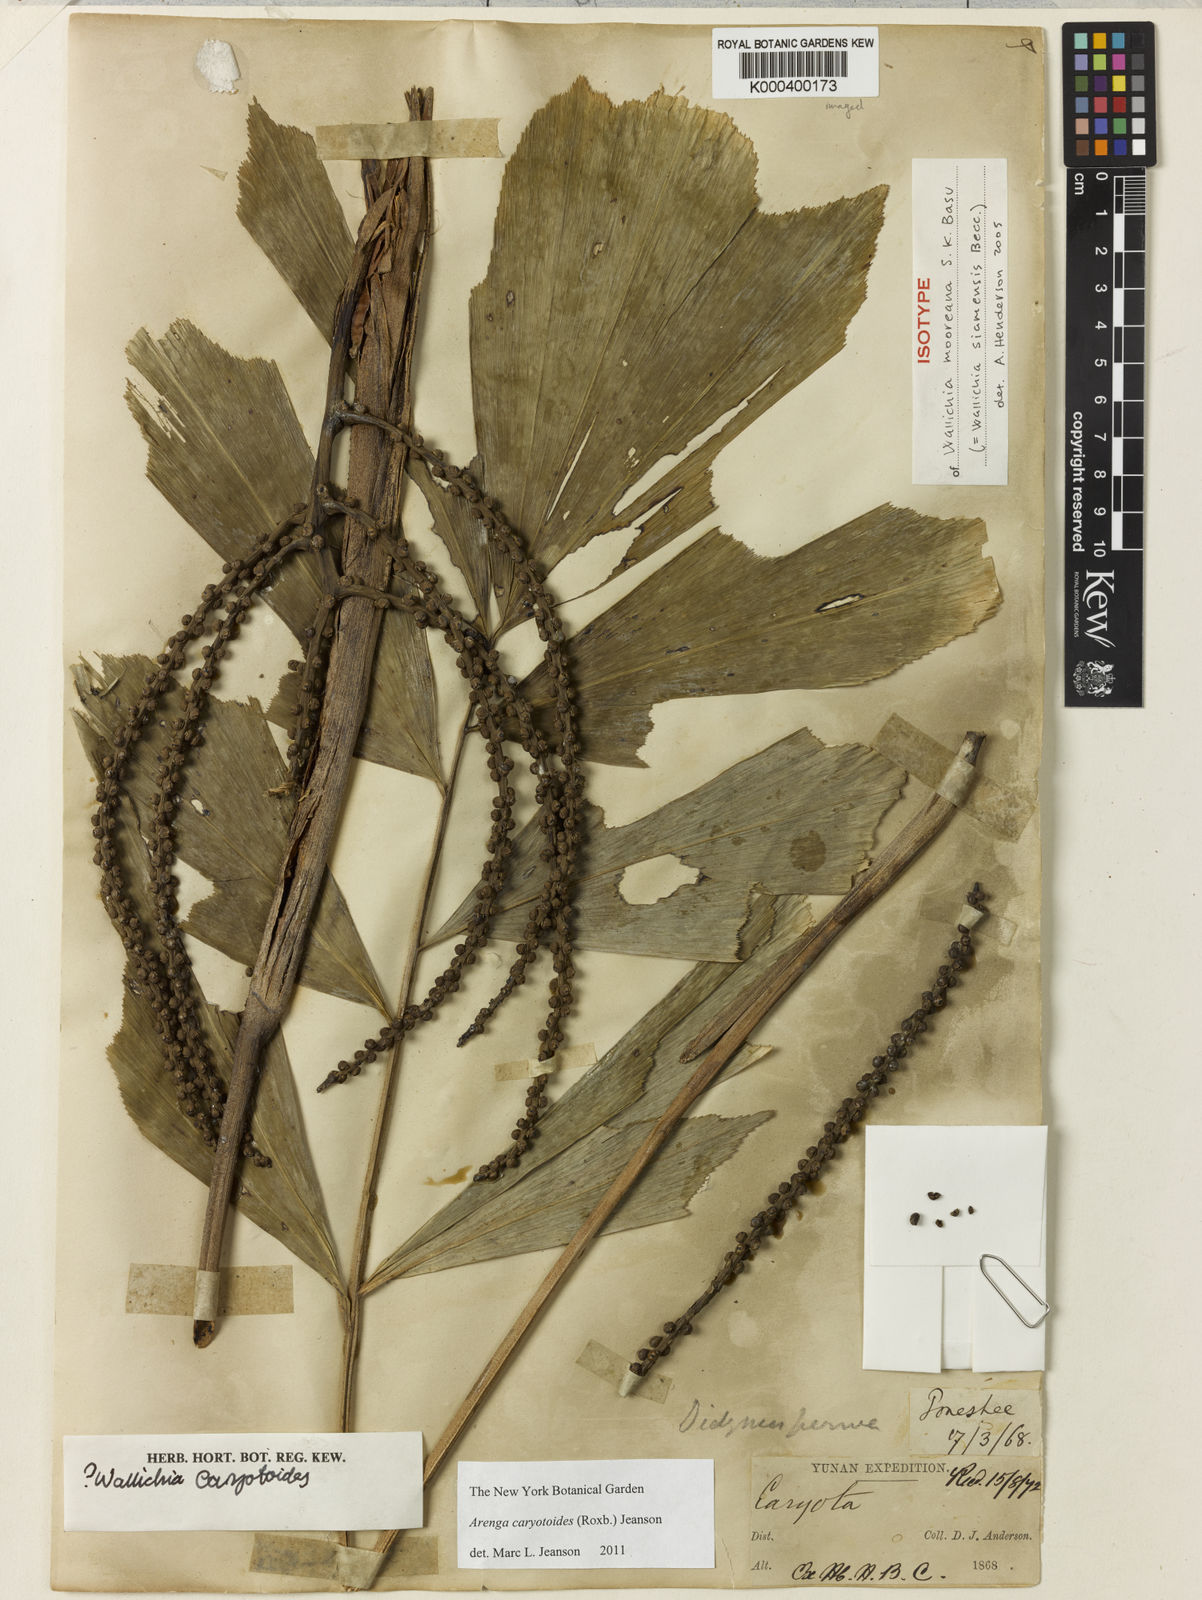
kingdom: Plantae
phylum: Tracheophyta
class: Liliopsida
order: Arecales
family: Arecaceae
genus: Arenga
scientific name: Arenga
